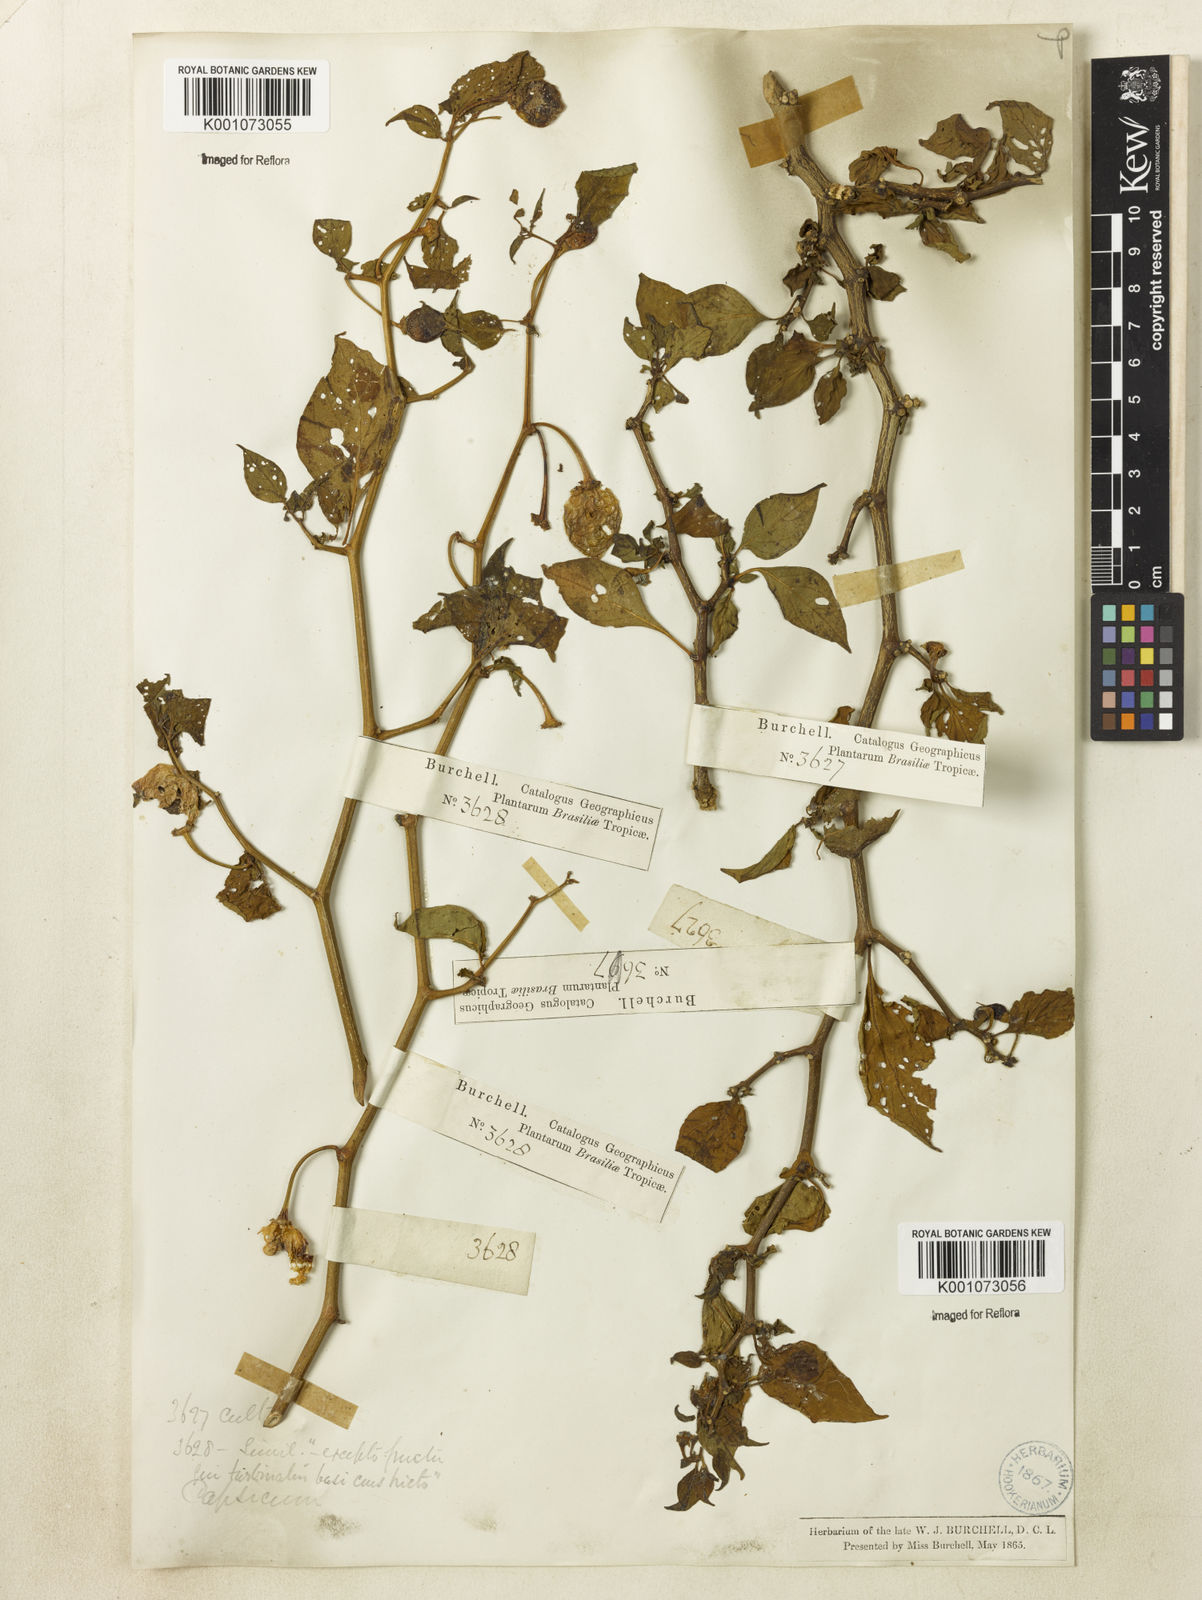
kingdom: Plantae
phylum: Tracheophyta
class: Magnoliopsida
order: Solanales
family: Solanaceae
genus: Capsicum
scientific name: Capsicum
